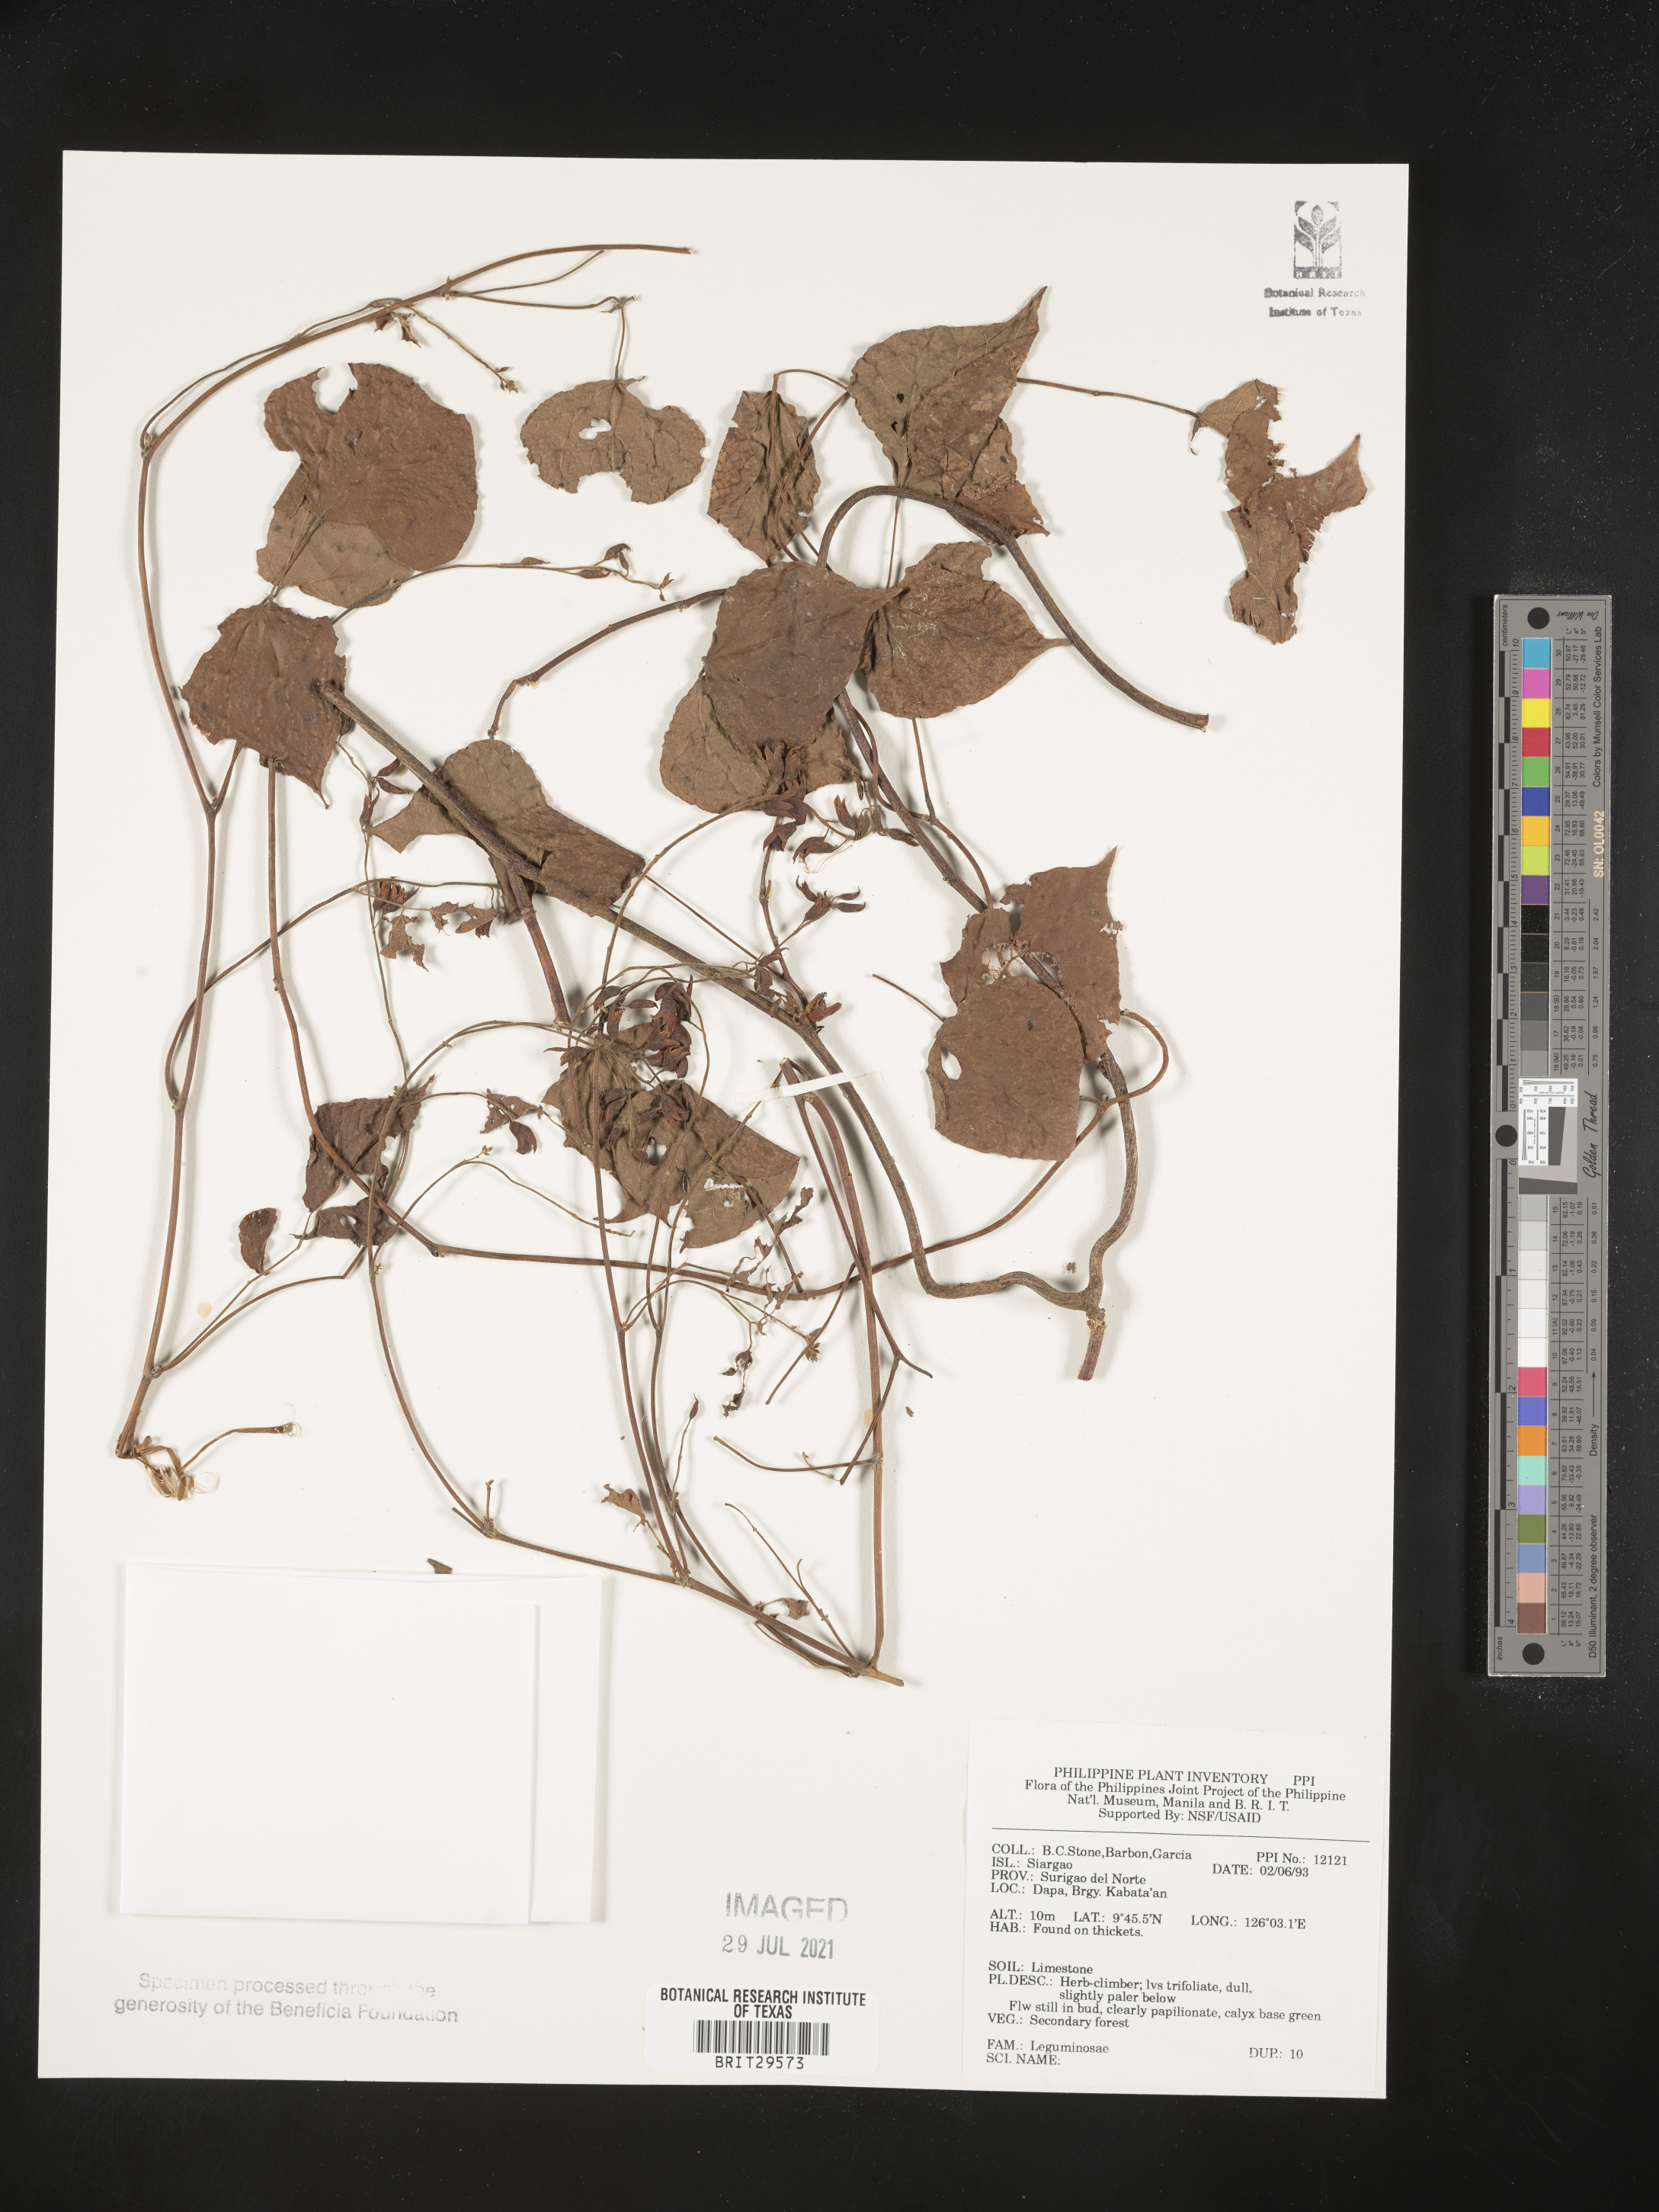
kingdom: Plantae
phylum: Tracheophyta
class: Magnoliopsida
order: Fabales
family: Fabaceae
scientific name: Fabaceae
